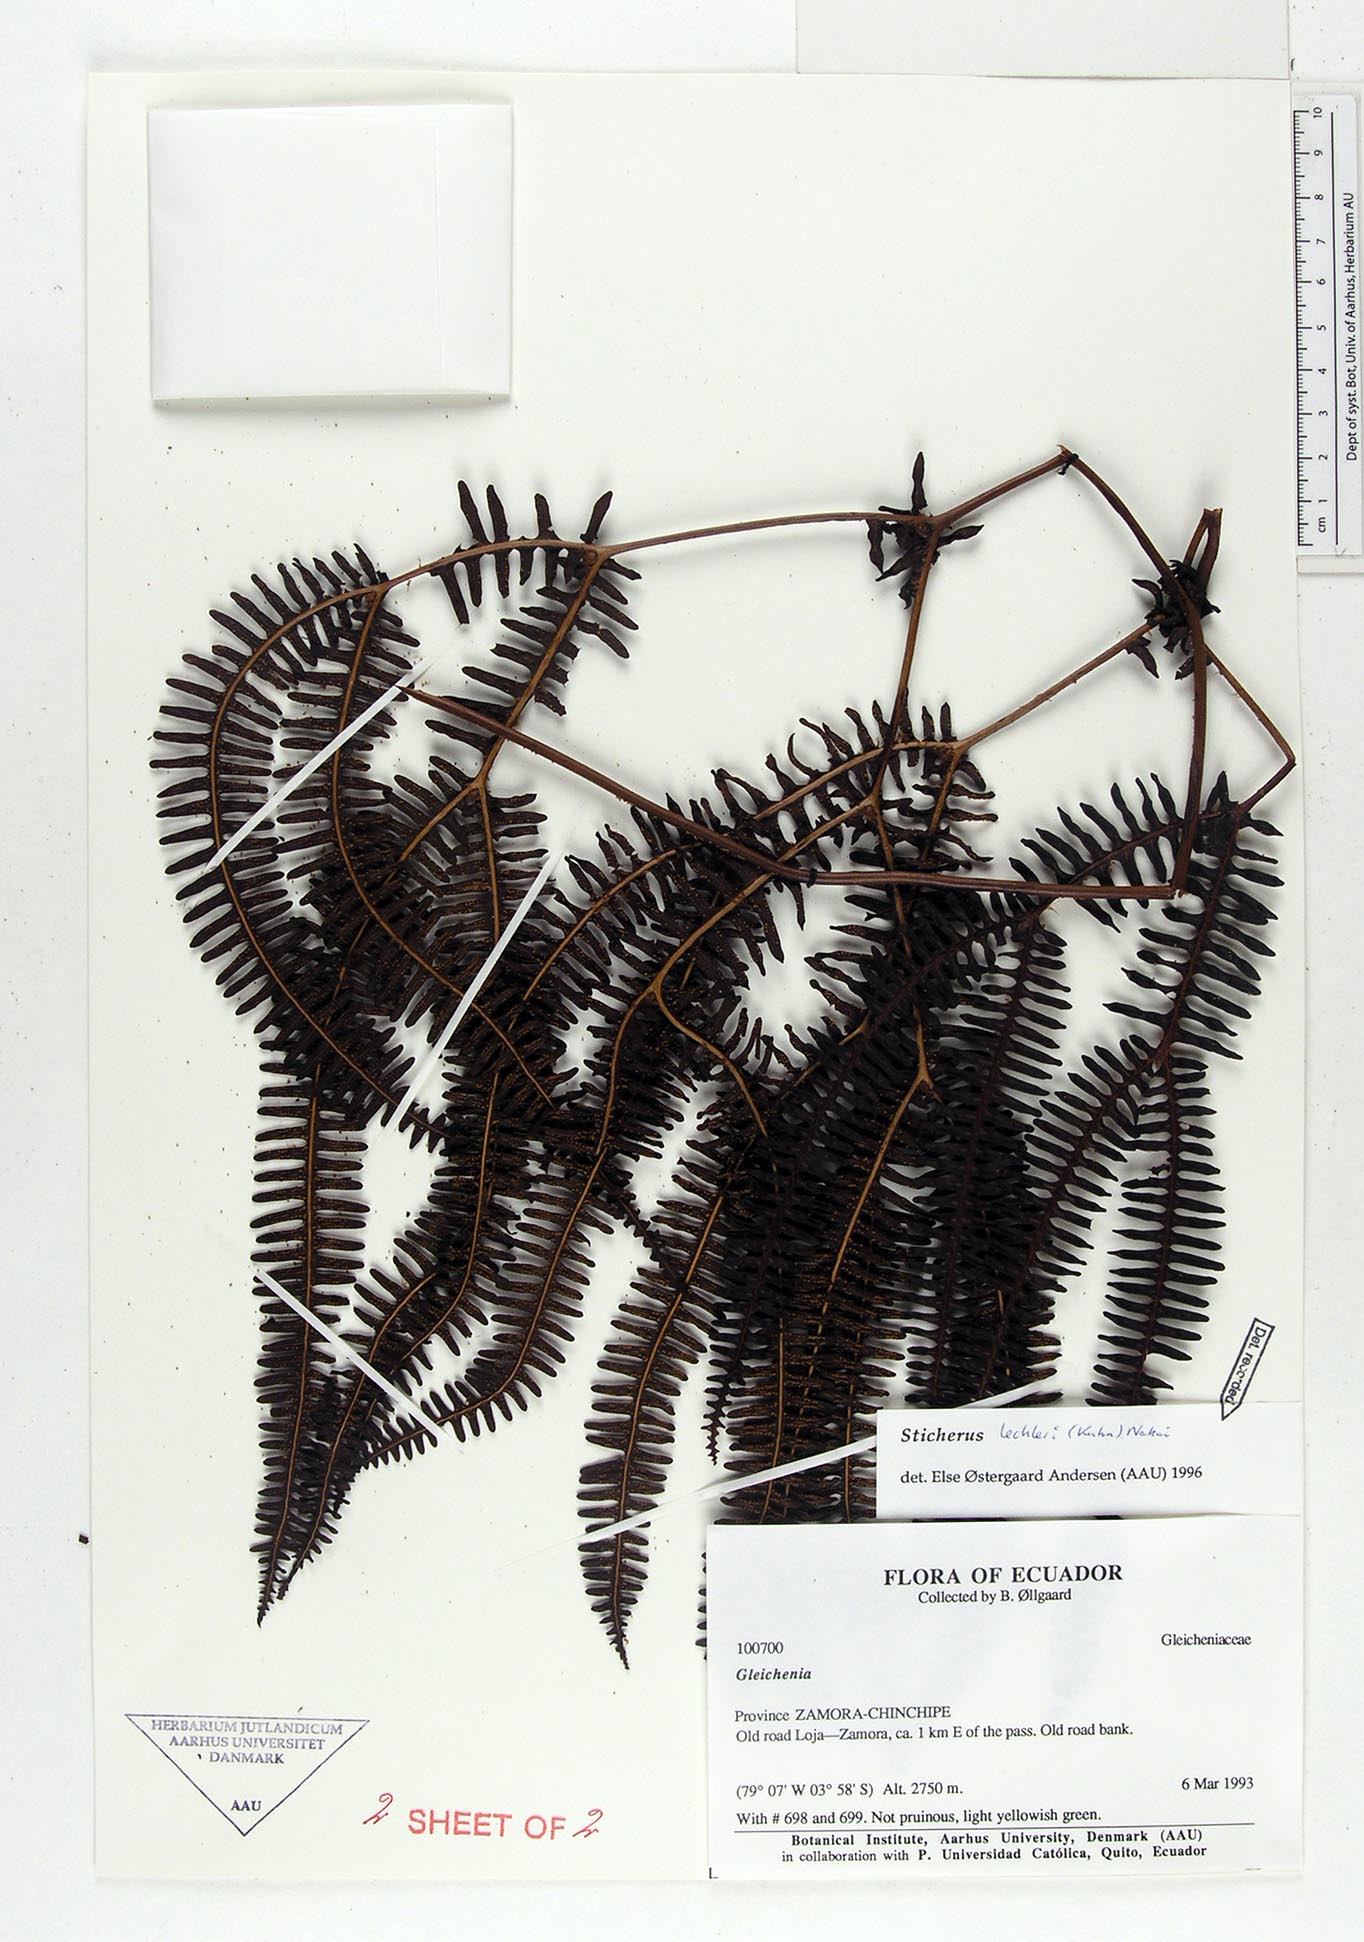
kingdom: Plantae
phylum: Tracheophyta
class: Polypodiopsida
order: Gleicheniales
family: Gleicheniaceae
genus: Sticherus
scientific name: Sticherus lechleri
